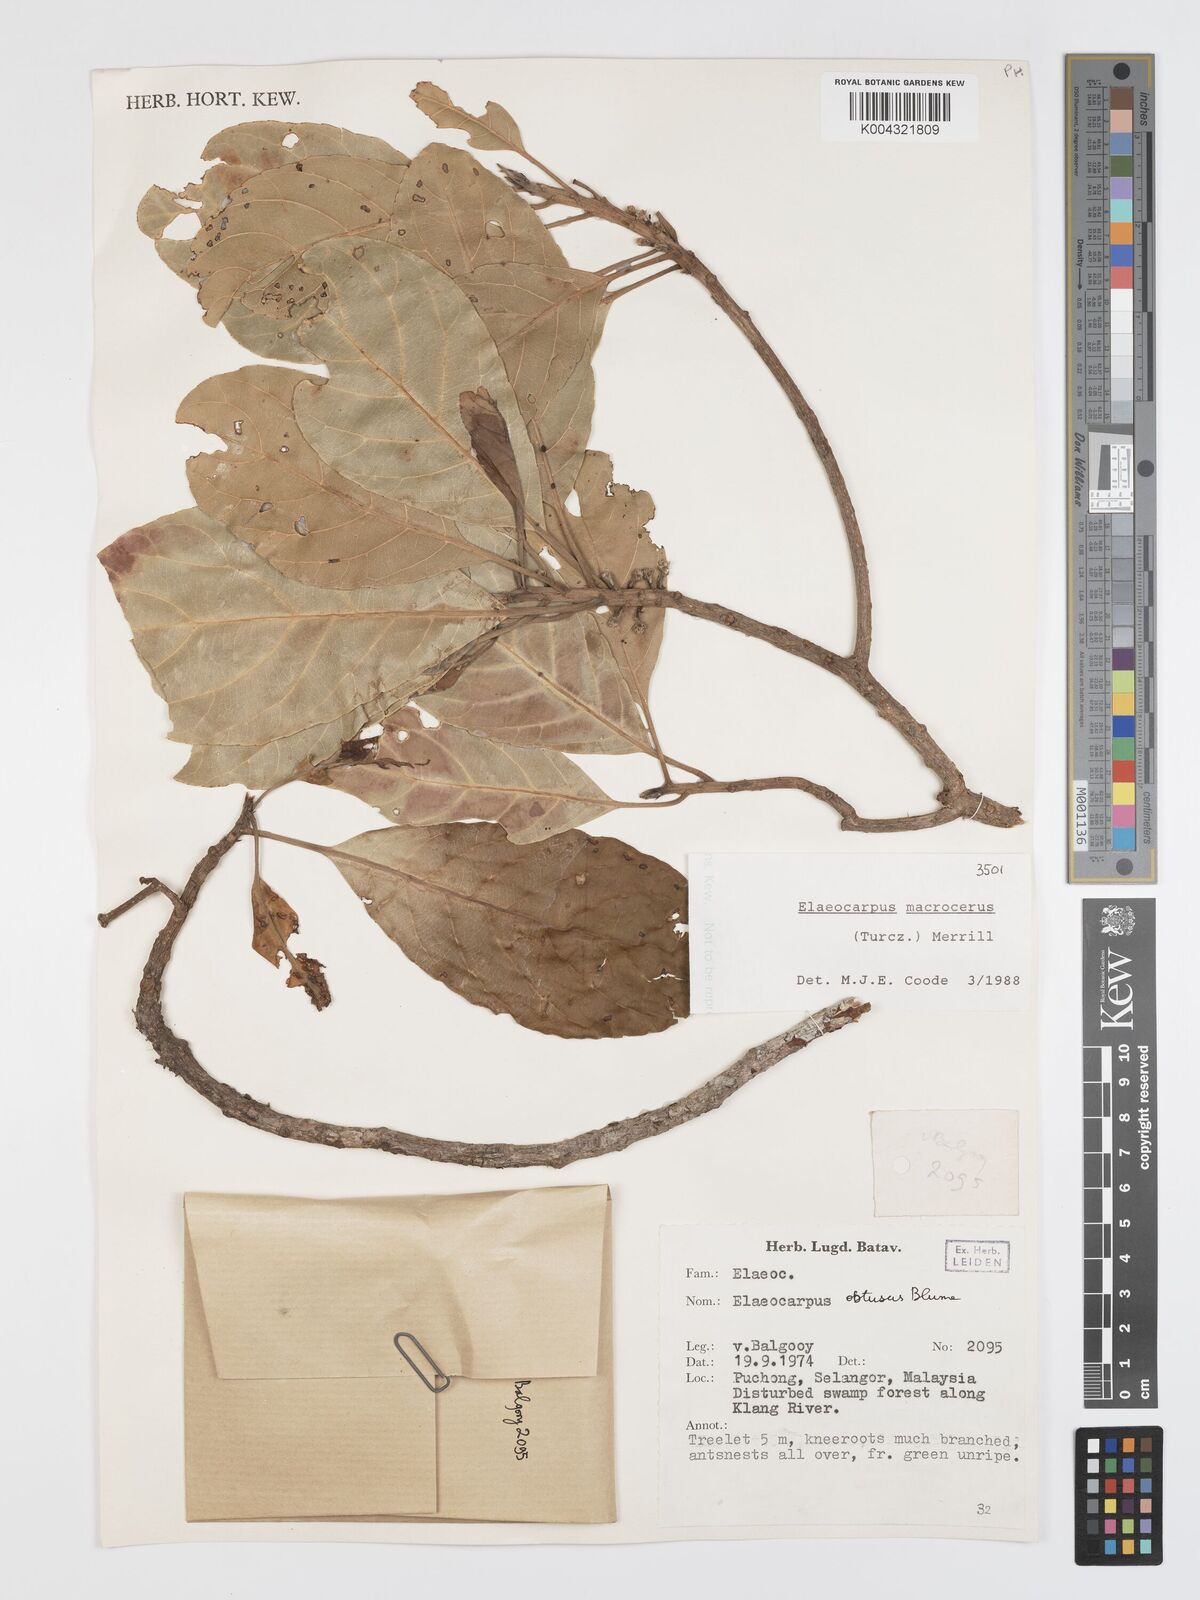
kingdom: Plantae
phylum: Tracheophyta
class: Magnoliopsida
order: Oxalidales
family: Elaeocarpaceae
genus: Elaeocarpus
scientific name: Elaeocarpus macrocerus
